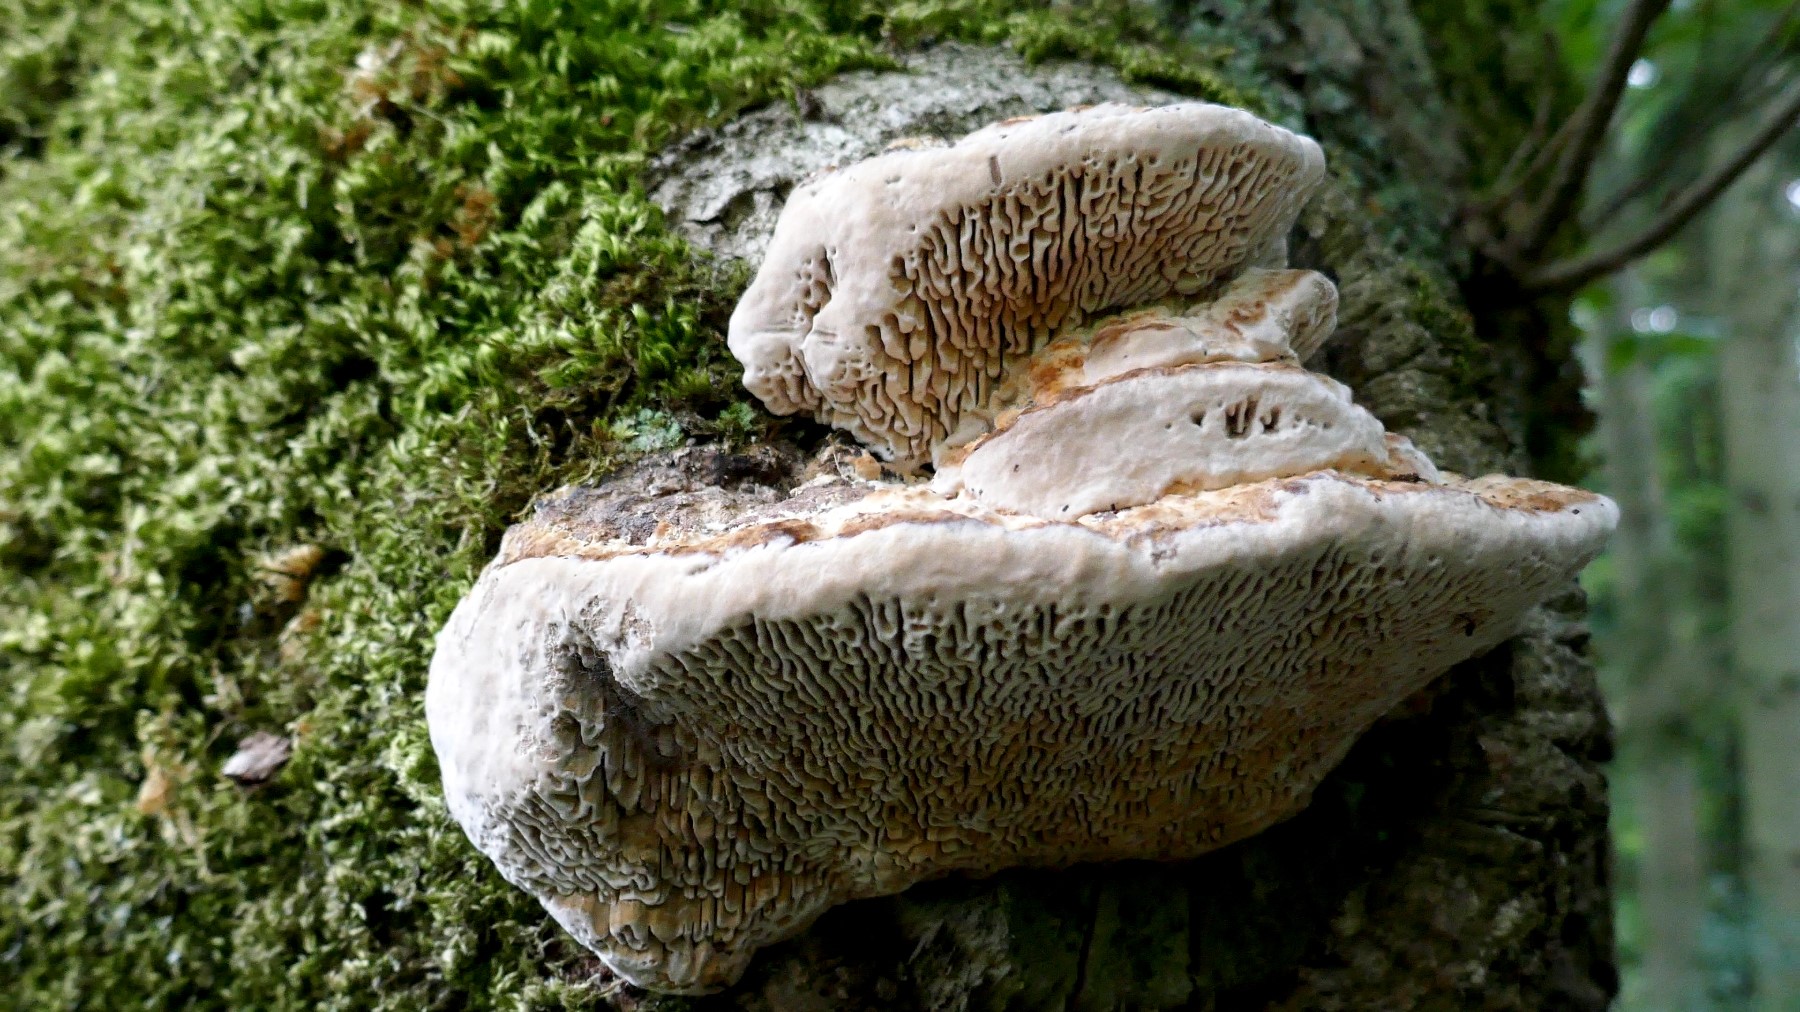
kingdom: Fungi
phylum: Basidiomycota
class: Agaricomycetes
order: Polyporales
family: Fomitopsidaceae
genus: Daedalea
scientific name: Daedalea quercina
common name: ege-labyrintsvamp
